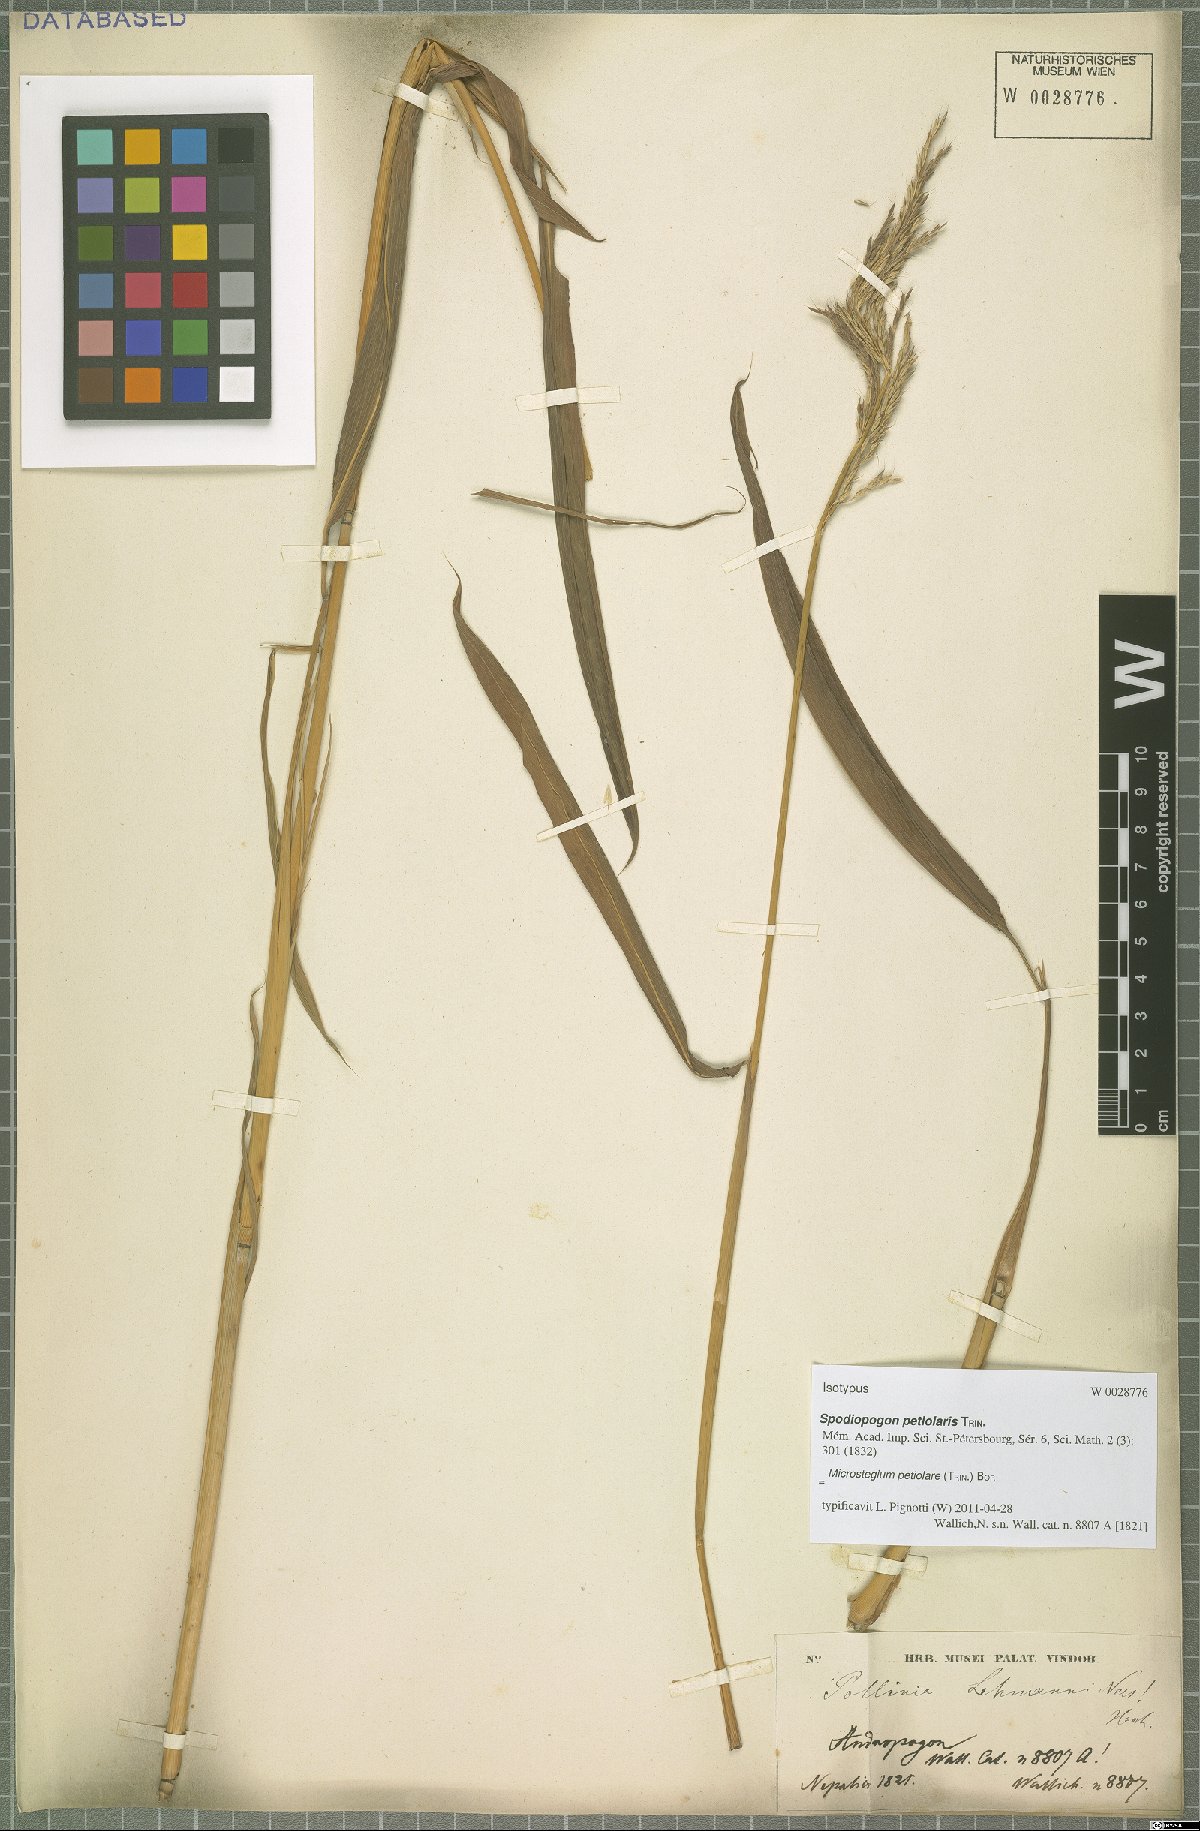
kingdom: Plantae
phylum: Tracheophyta
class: Liliopsida
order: Poales
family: Poaceae
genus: Microstegium
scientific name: Microstegium petiolare
